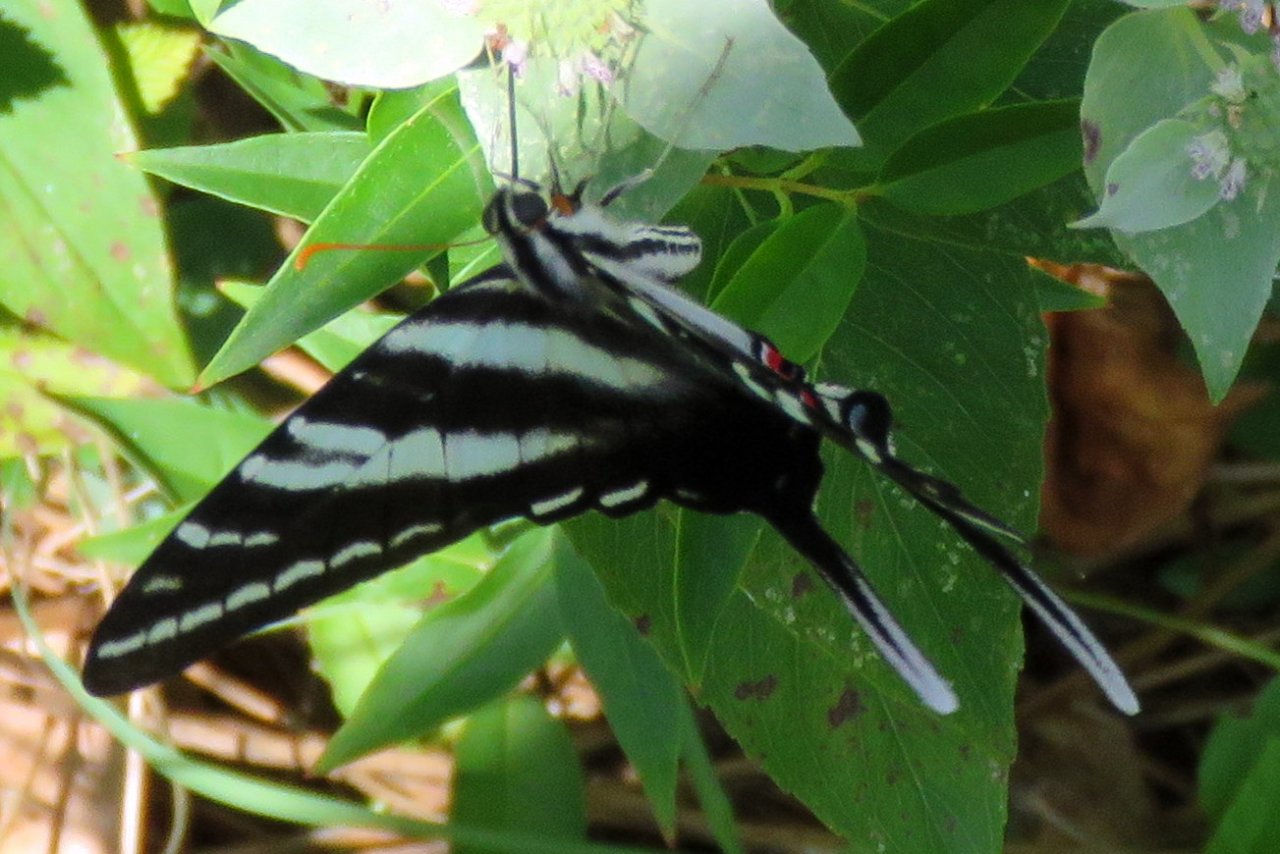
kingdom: Animalia
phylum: Arthropoda
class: Insecta
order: Lepidoptera
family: Papilionidae
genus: Protographium
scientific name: Protographium marcellus
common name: Zebra Swallowtail
